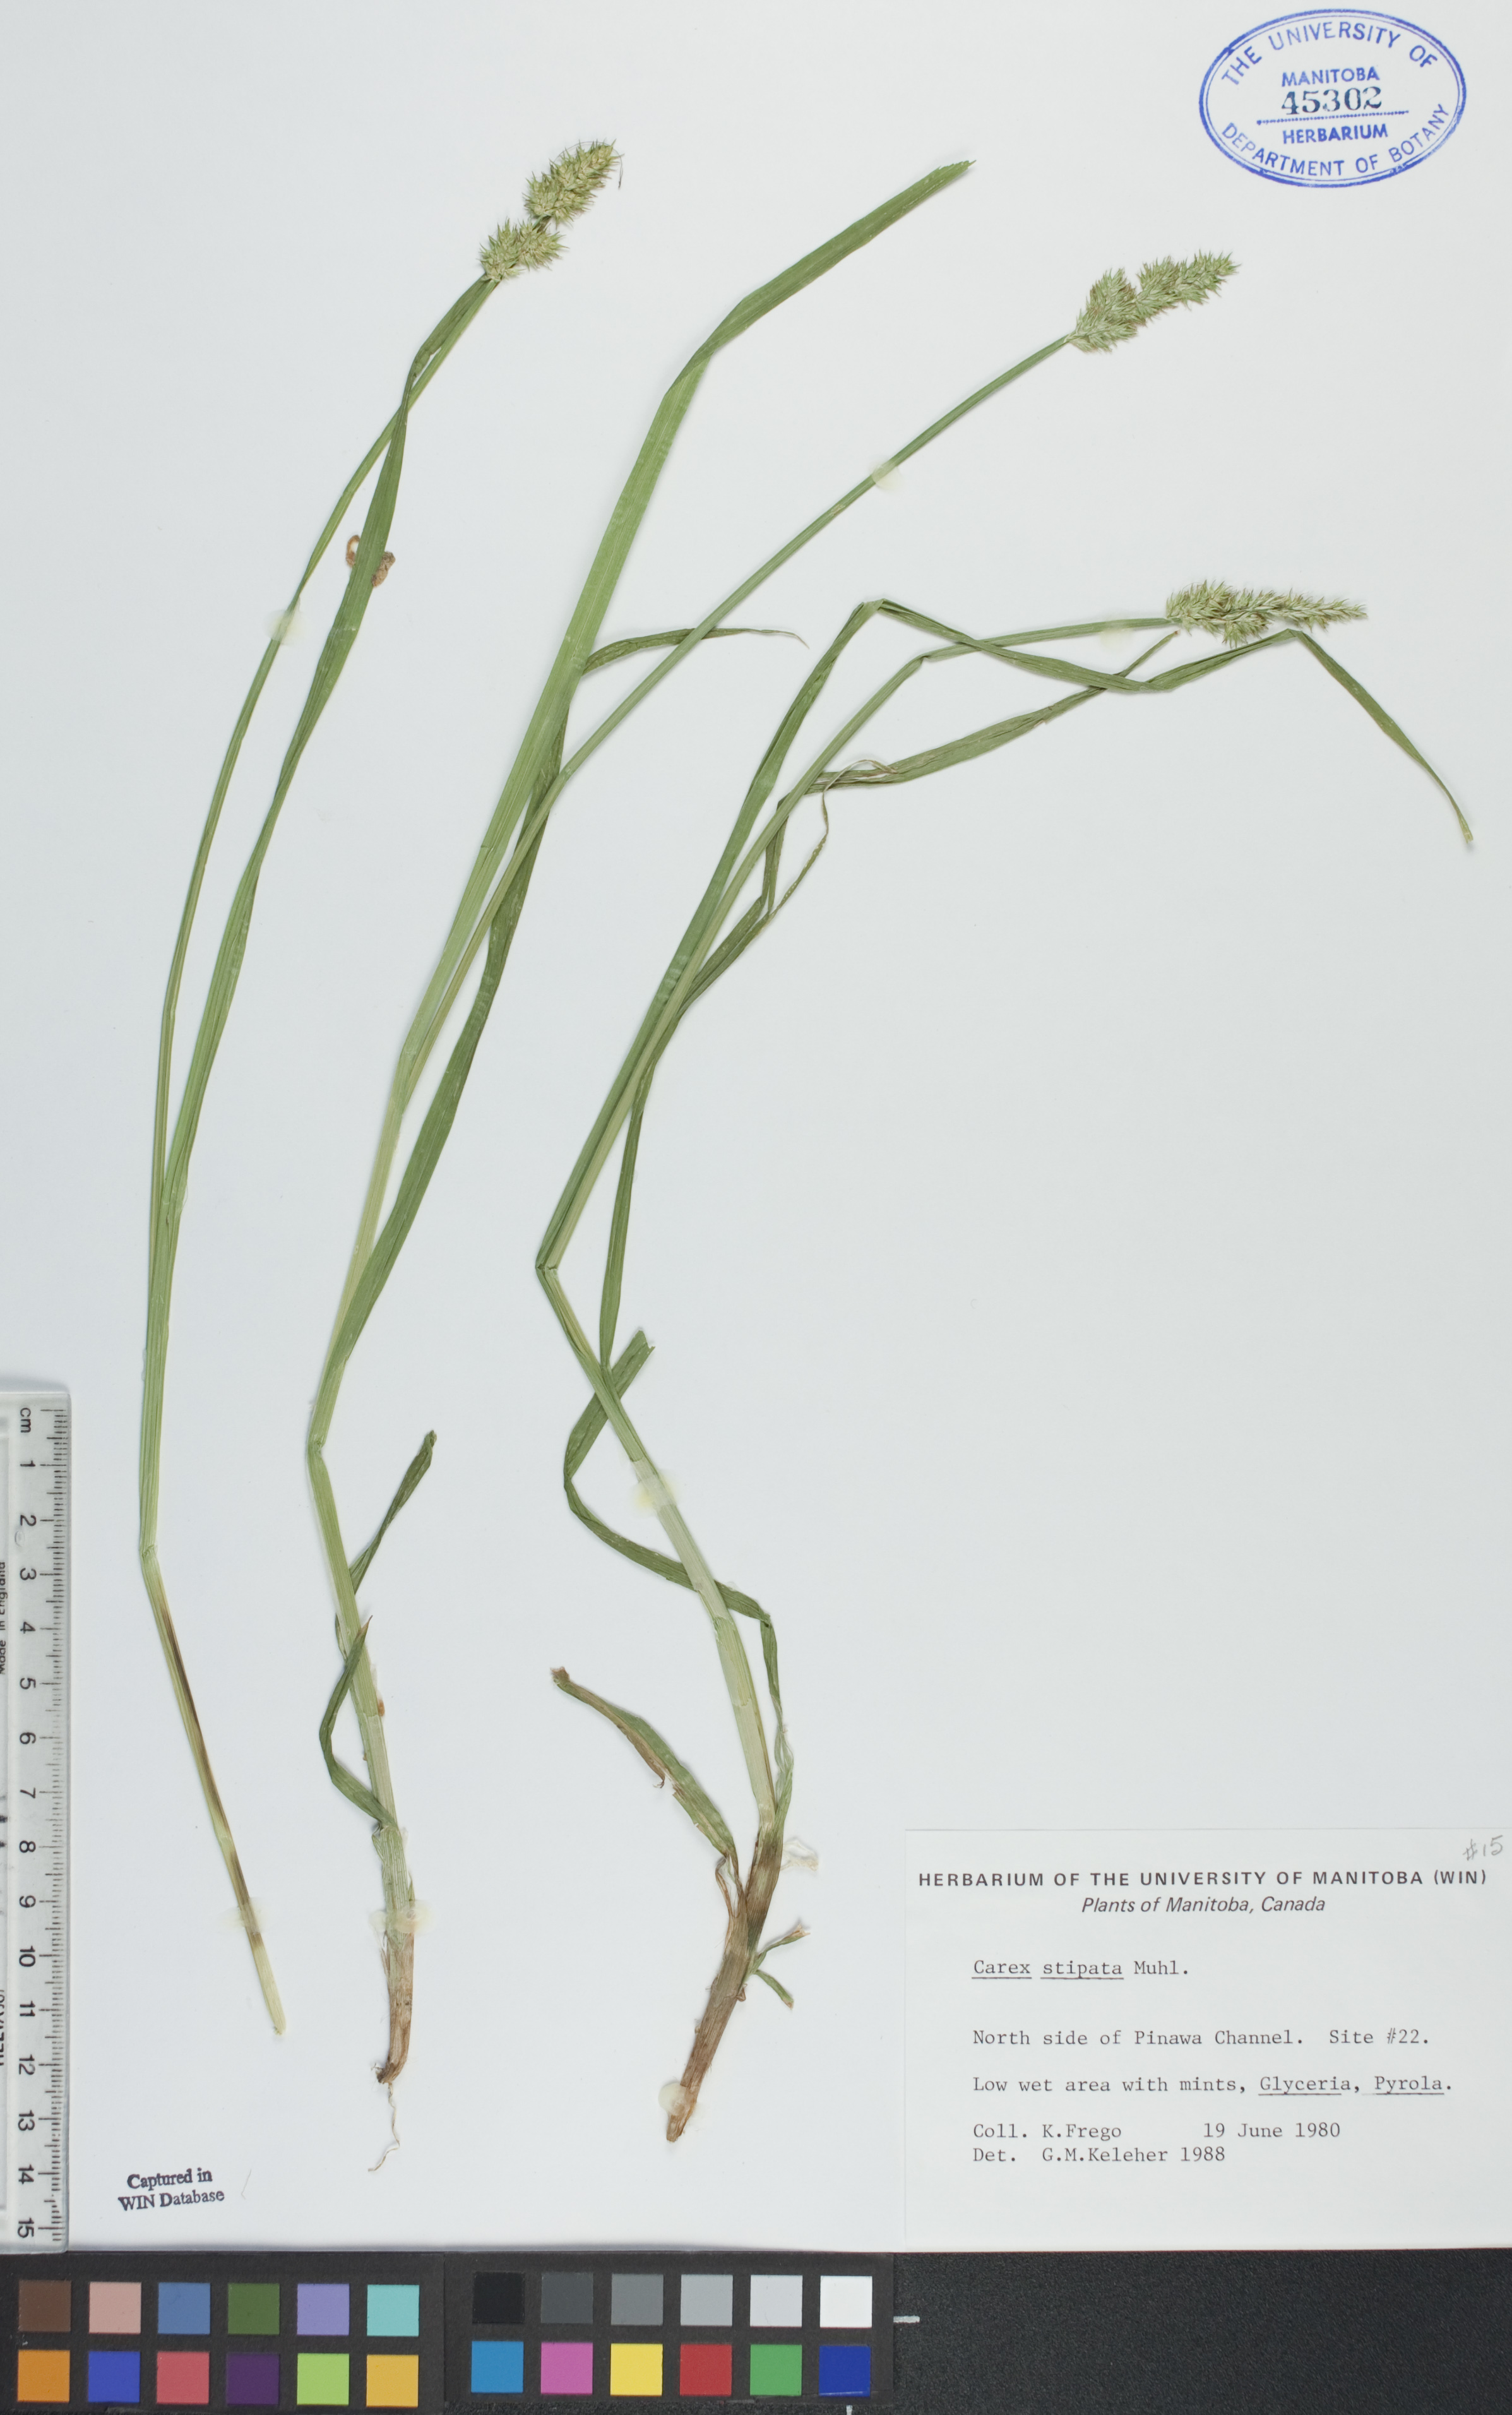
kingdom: Plantae
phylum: Tracheophyta
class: Liliopsida
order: Poales
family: Cyperaceae
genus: Carex
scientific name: Carex stipata
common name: Awl-fruited sedge
